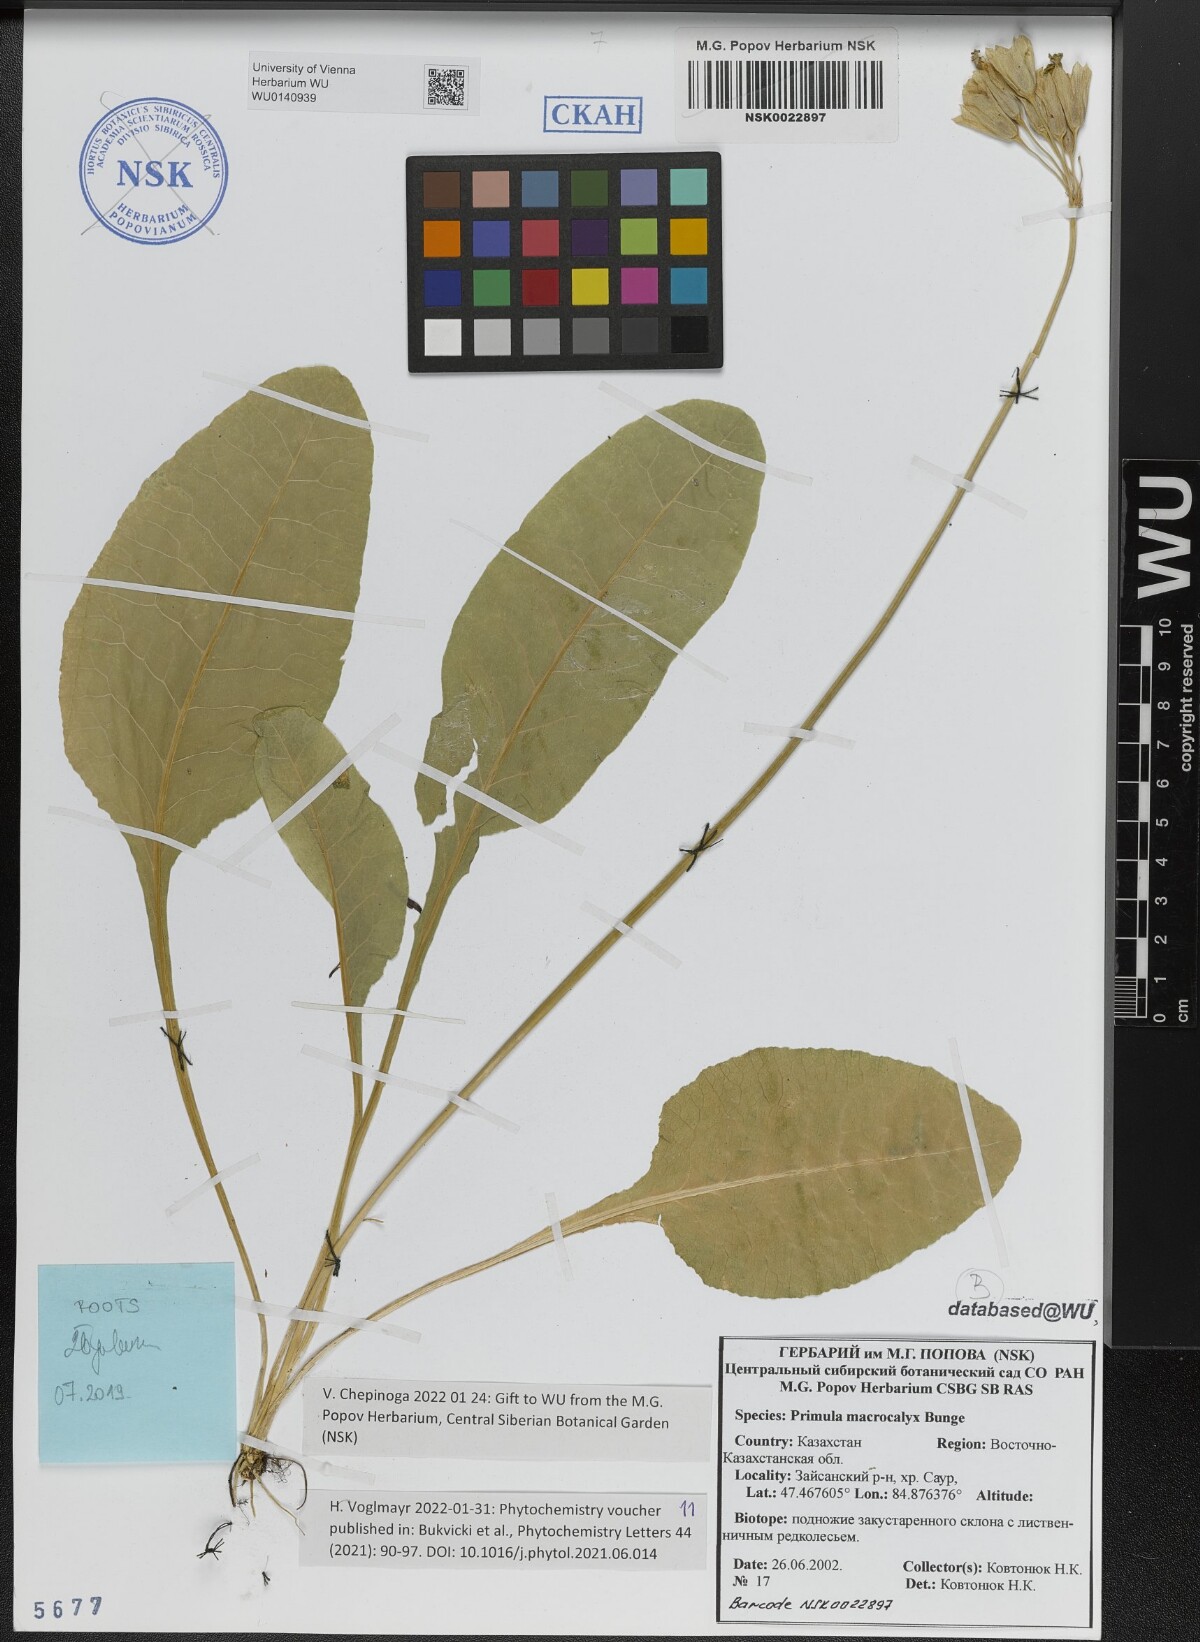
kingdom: Plantae
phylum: Tracheophyta
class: Magnoliopsida
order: Ericales
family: Primulaceae
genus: Primula
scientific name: Primula veris
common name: Cowslip
